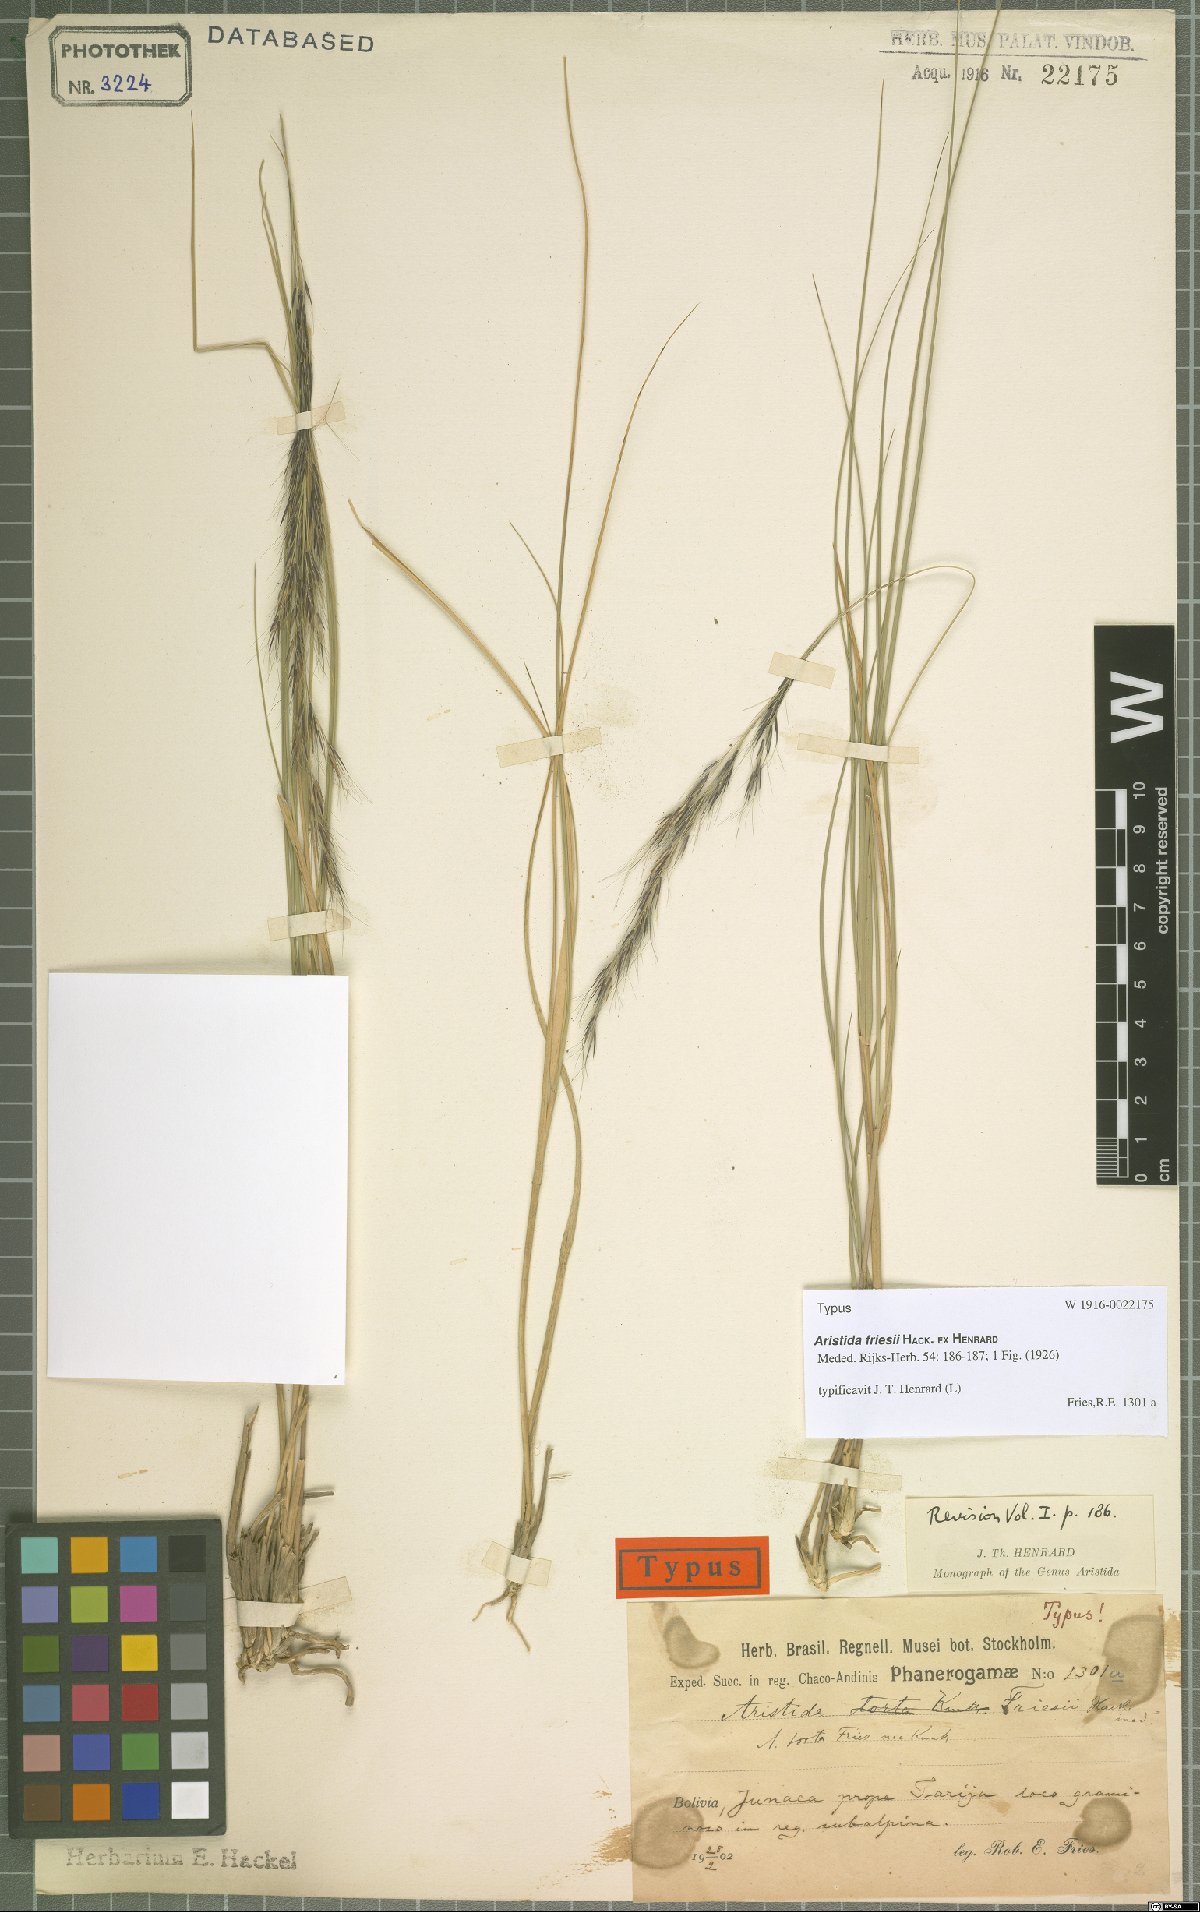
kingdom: Plantae
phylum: Tracheophyta
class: Liliopsida
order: Poales
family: Poaceae
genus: Aristida
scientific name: Aristida friesii
